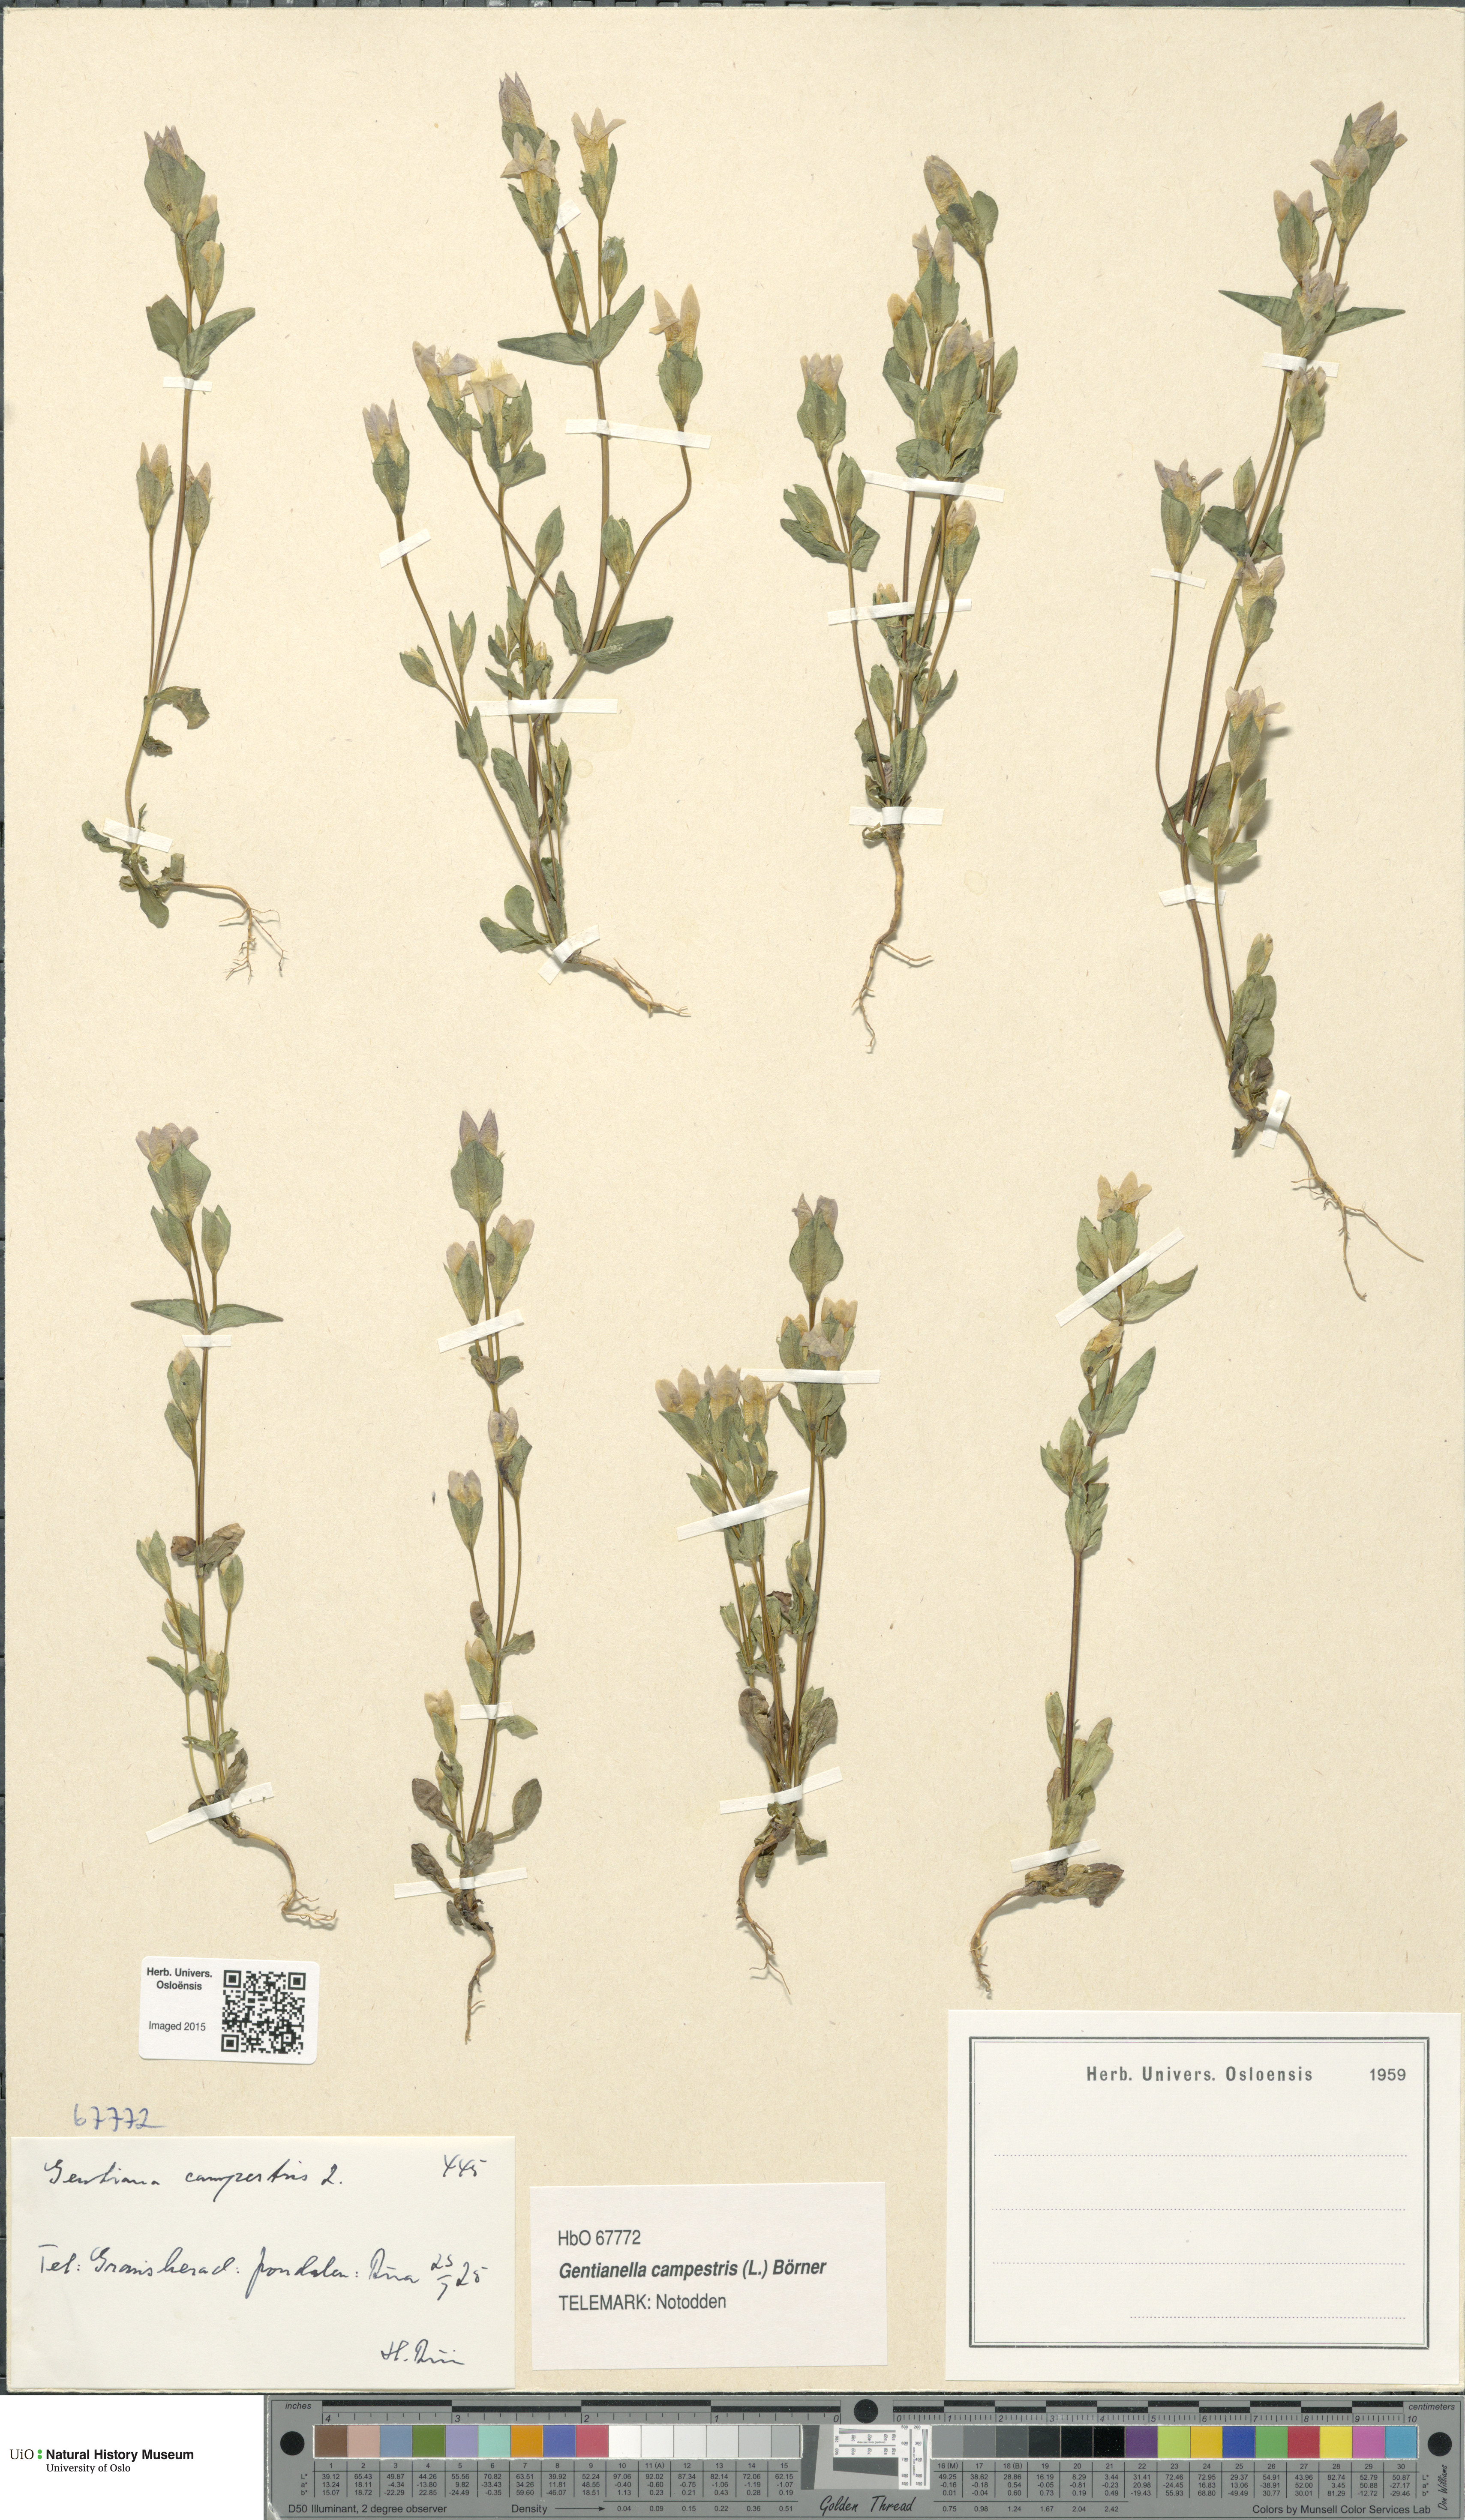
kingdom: Plantae
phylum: Tracheophyta
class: Magnoliopsida
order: Gentianales
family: Gentianaceae
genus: Gentianella
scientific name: Gentianella campestris
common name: Field gentian
